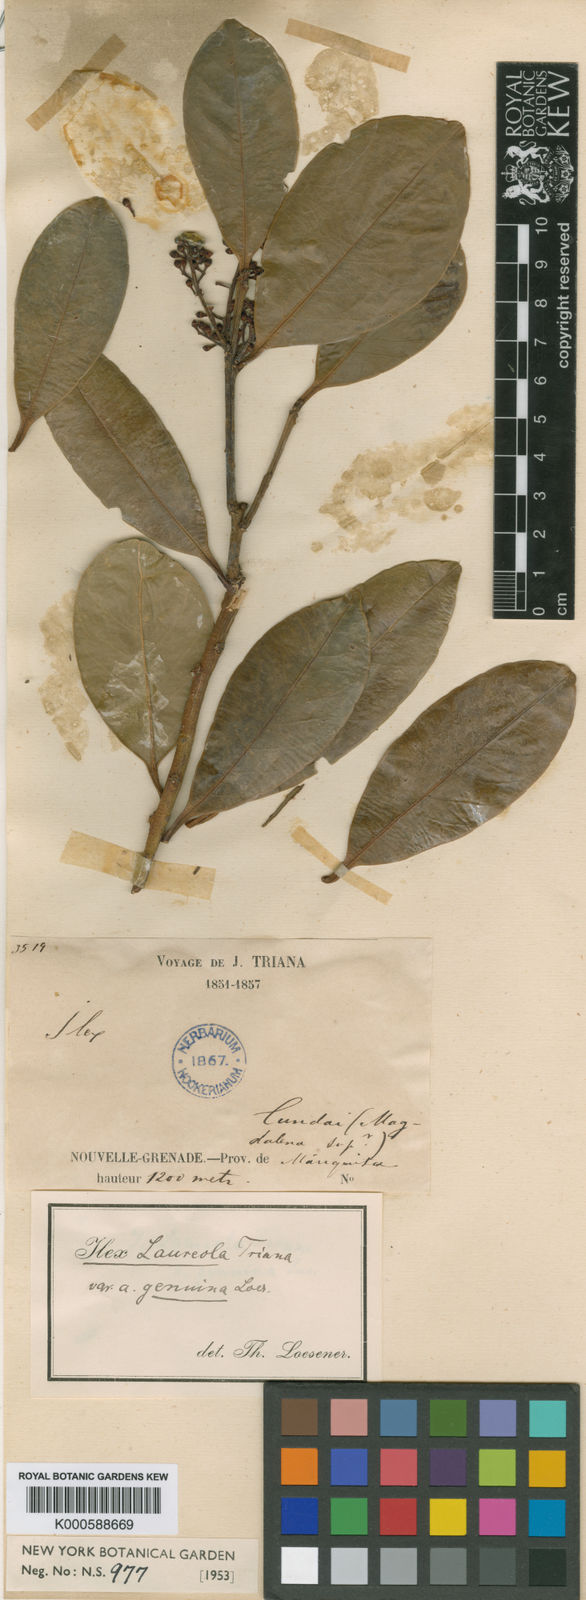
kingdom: Plantae
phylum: Tracheophyta
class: Magnoliopsida
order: Aquifoliales
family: Aquifoliaceae
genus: Ilex
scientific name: Ilex laureola
